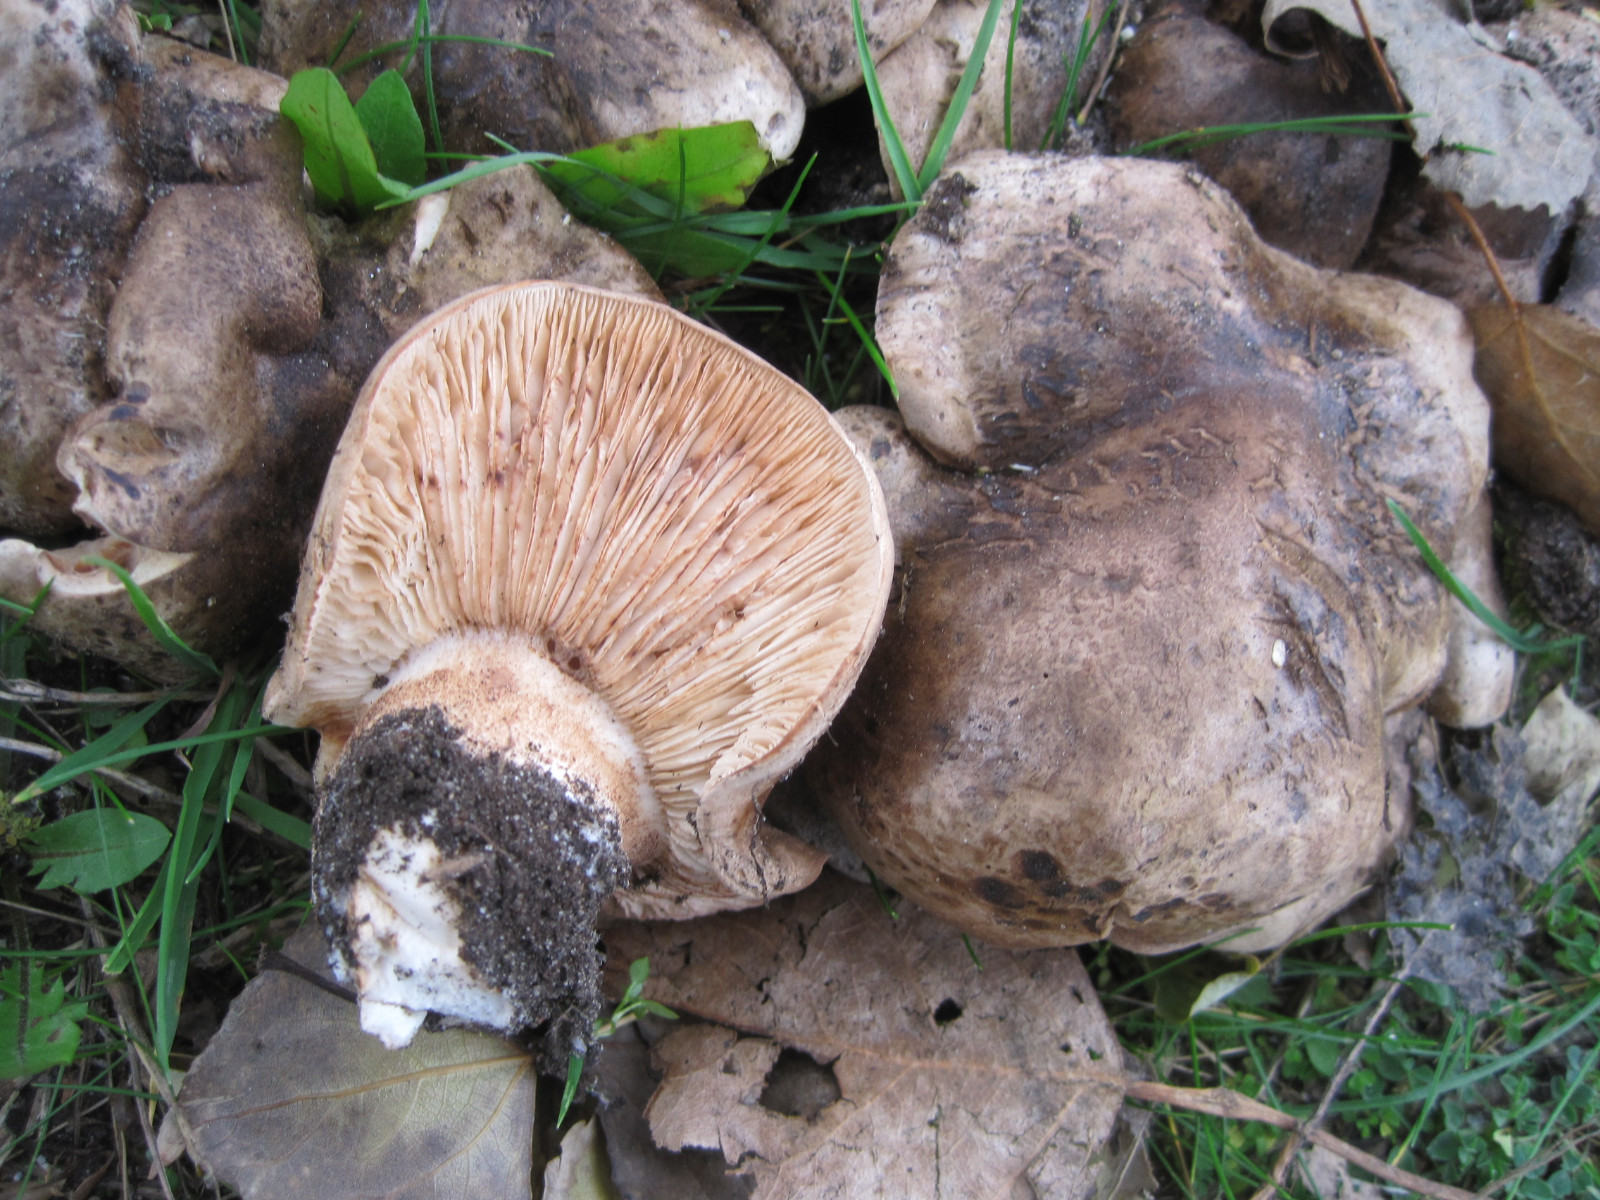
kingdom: Fungi
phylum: Basidiomycota
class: Agaricomycetes
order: Agaricales
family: Tricholomataceae
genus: Tricholoma
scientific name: Tricholoma populinum
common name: poppel-ridderhat
